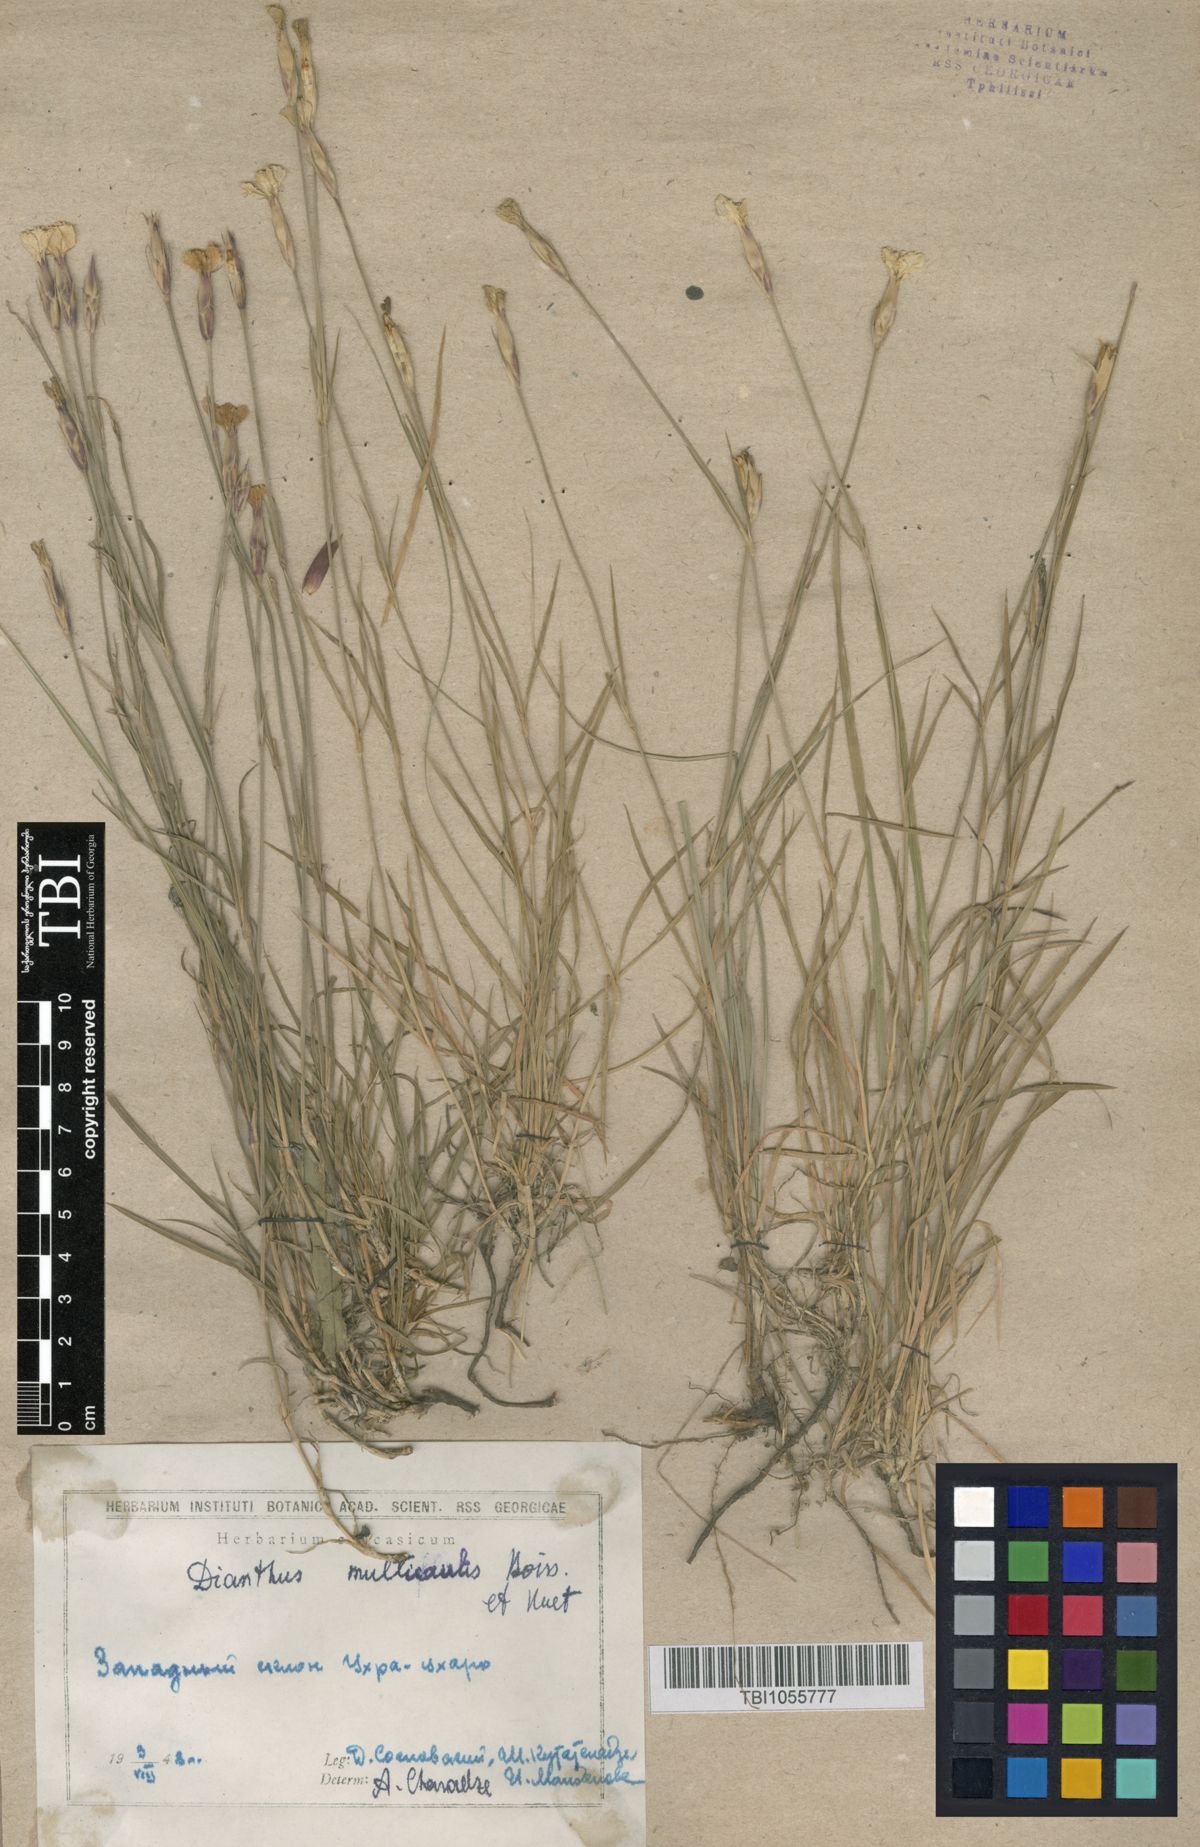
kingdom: Plantae
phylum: Tracheophyta
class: Magnoliopsida
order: Caryophyllales
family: Caryophyllaceae
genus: Dianthus
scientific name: Dianthus cretaceus
